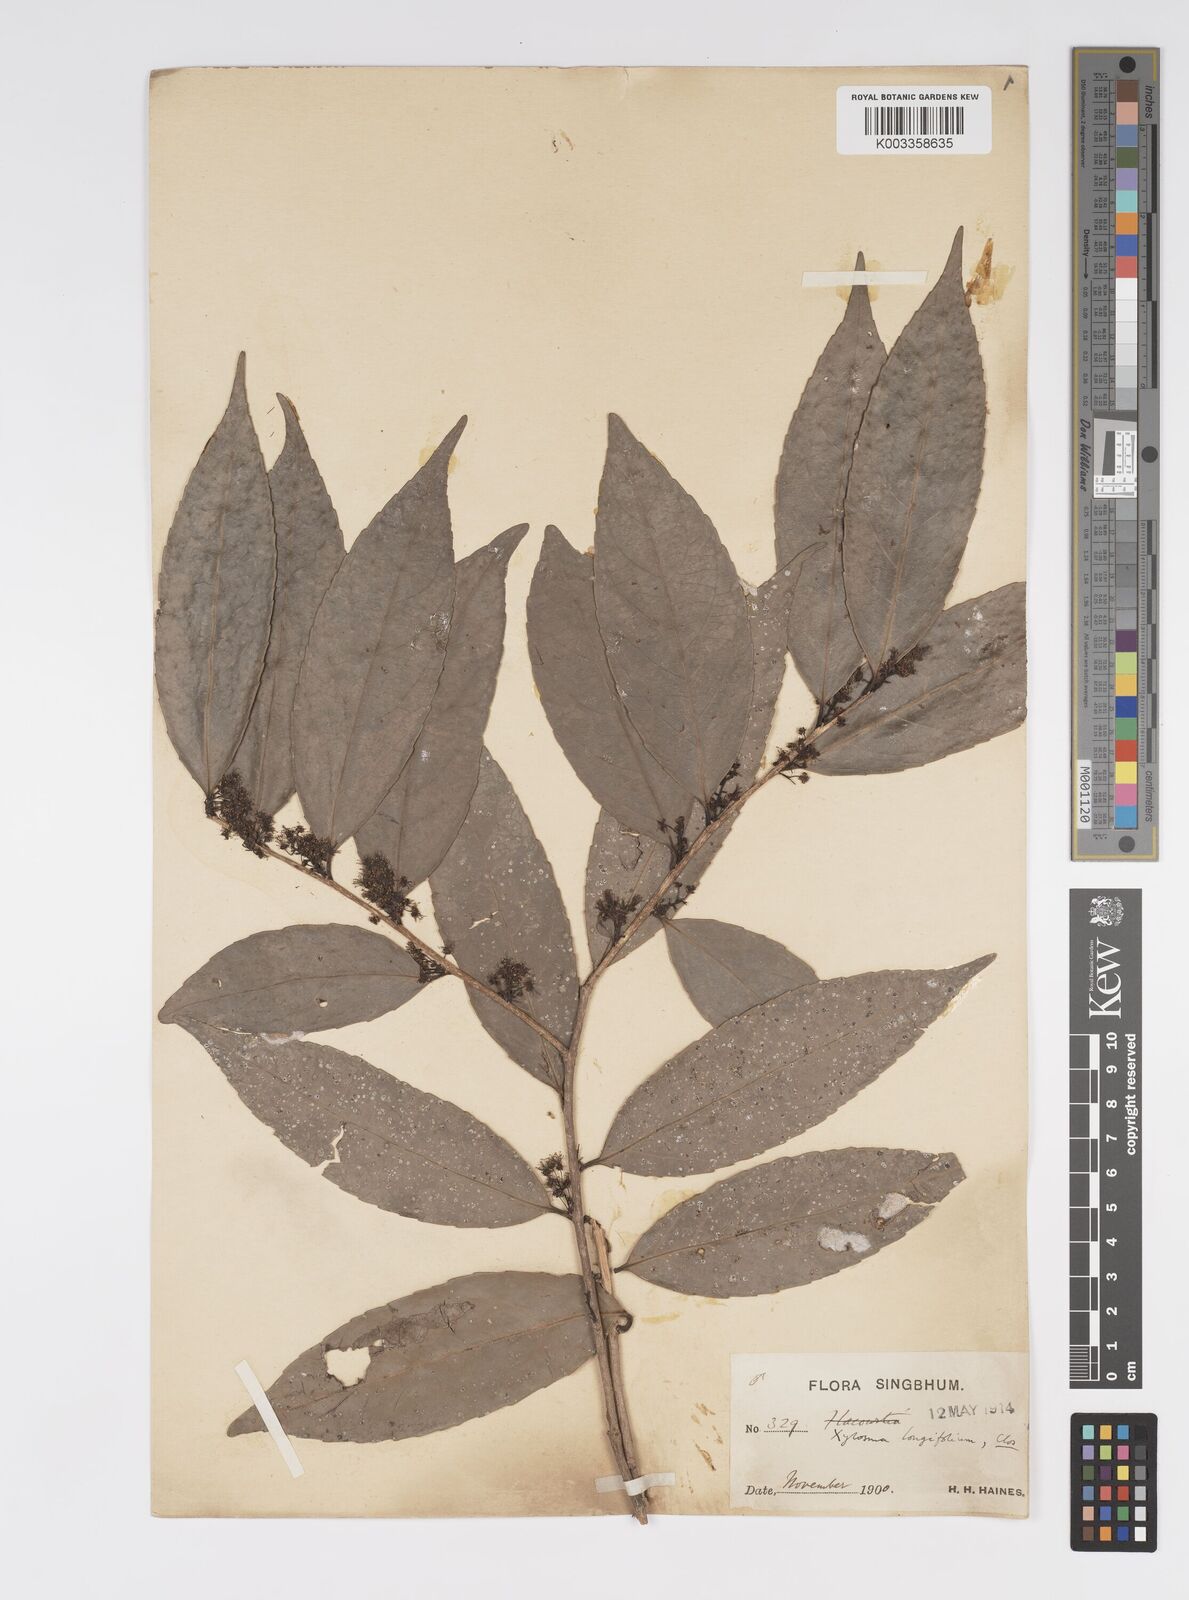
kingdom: Plantae
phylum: Tracheophyta
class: Magnoliopsida
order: Malpighiales
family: Salicaceae
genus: Xylosma
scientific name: Xylosma longifolia
